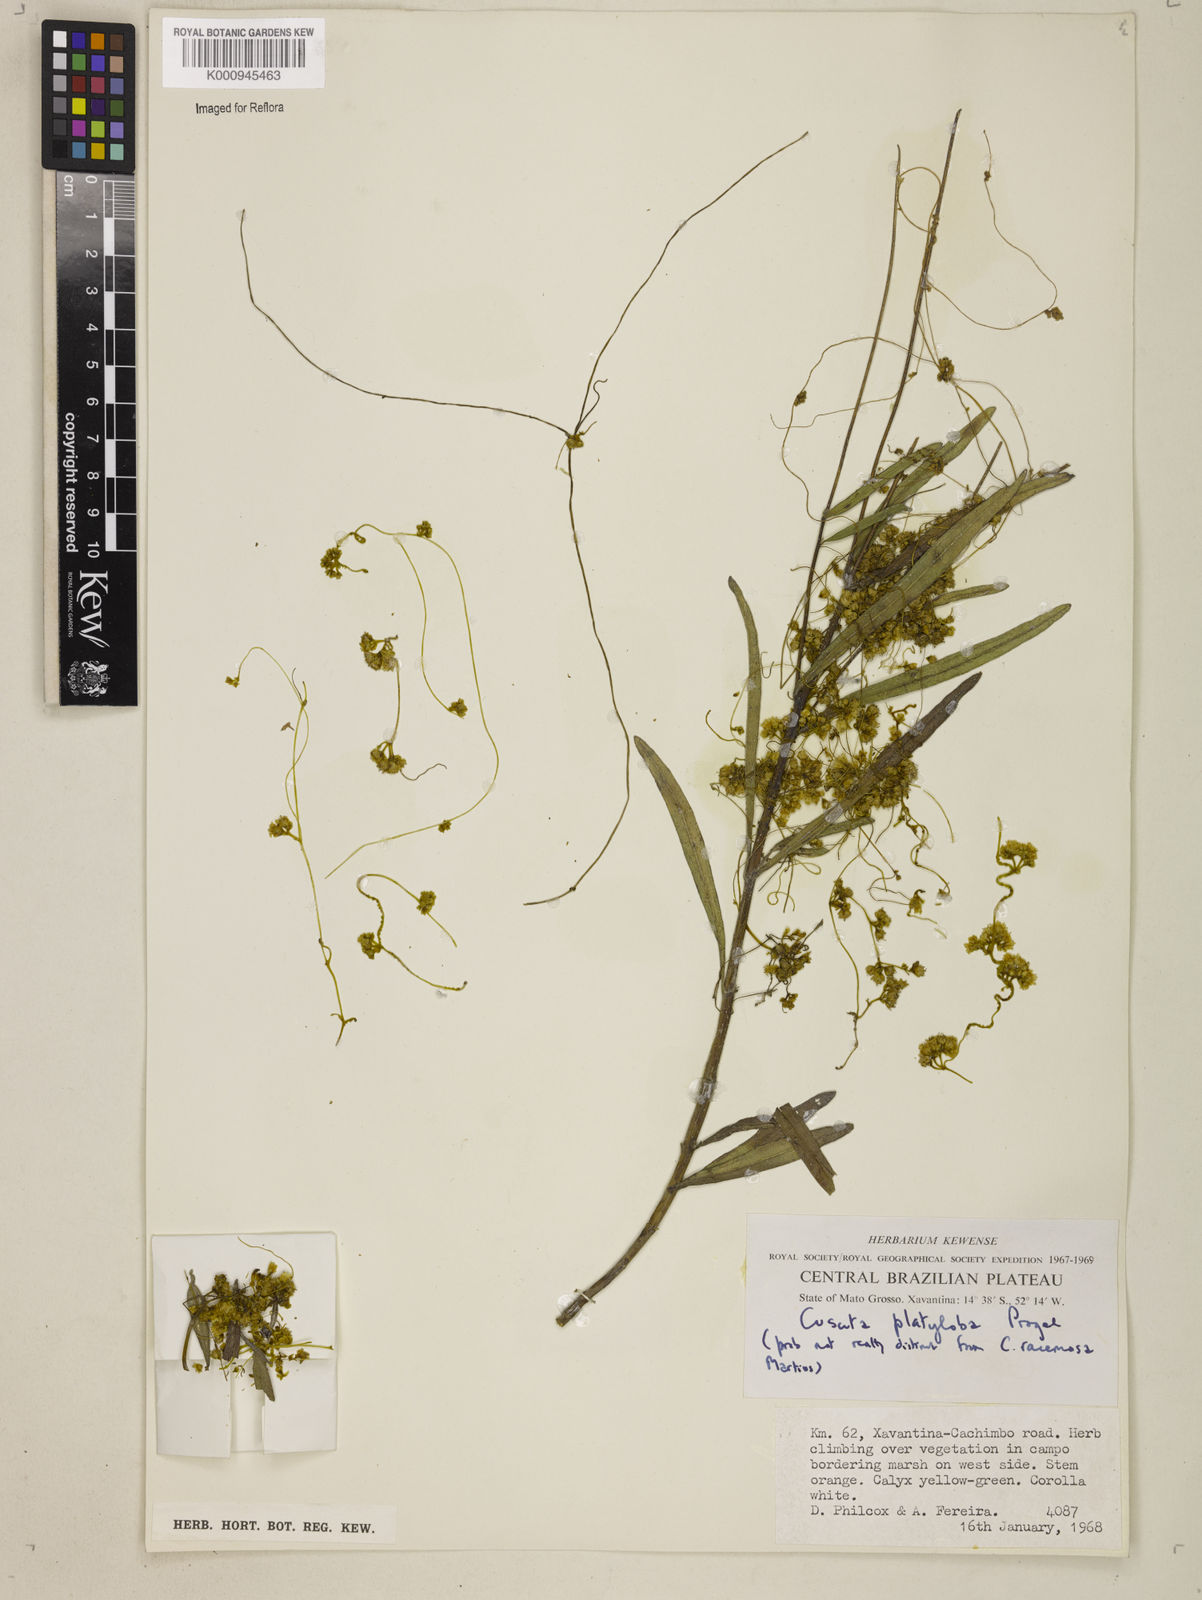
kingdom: Plantae
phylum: Tracheophyta
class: Magnoliopsida
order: Solanales
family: Convolvulaceae
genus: Cuscuta
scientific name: Cuscuta platyloba
